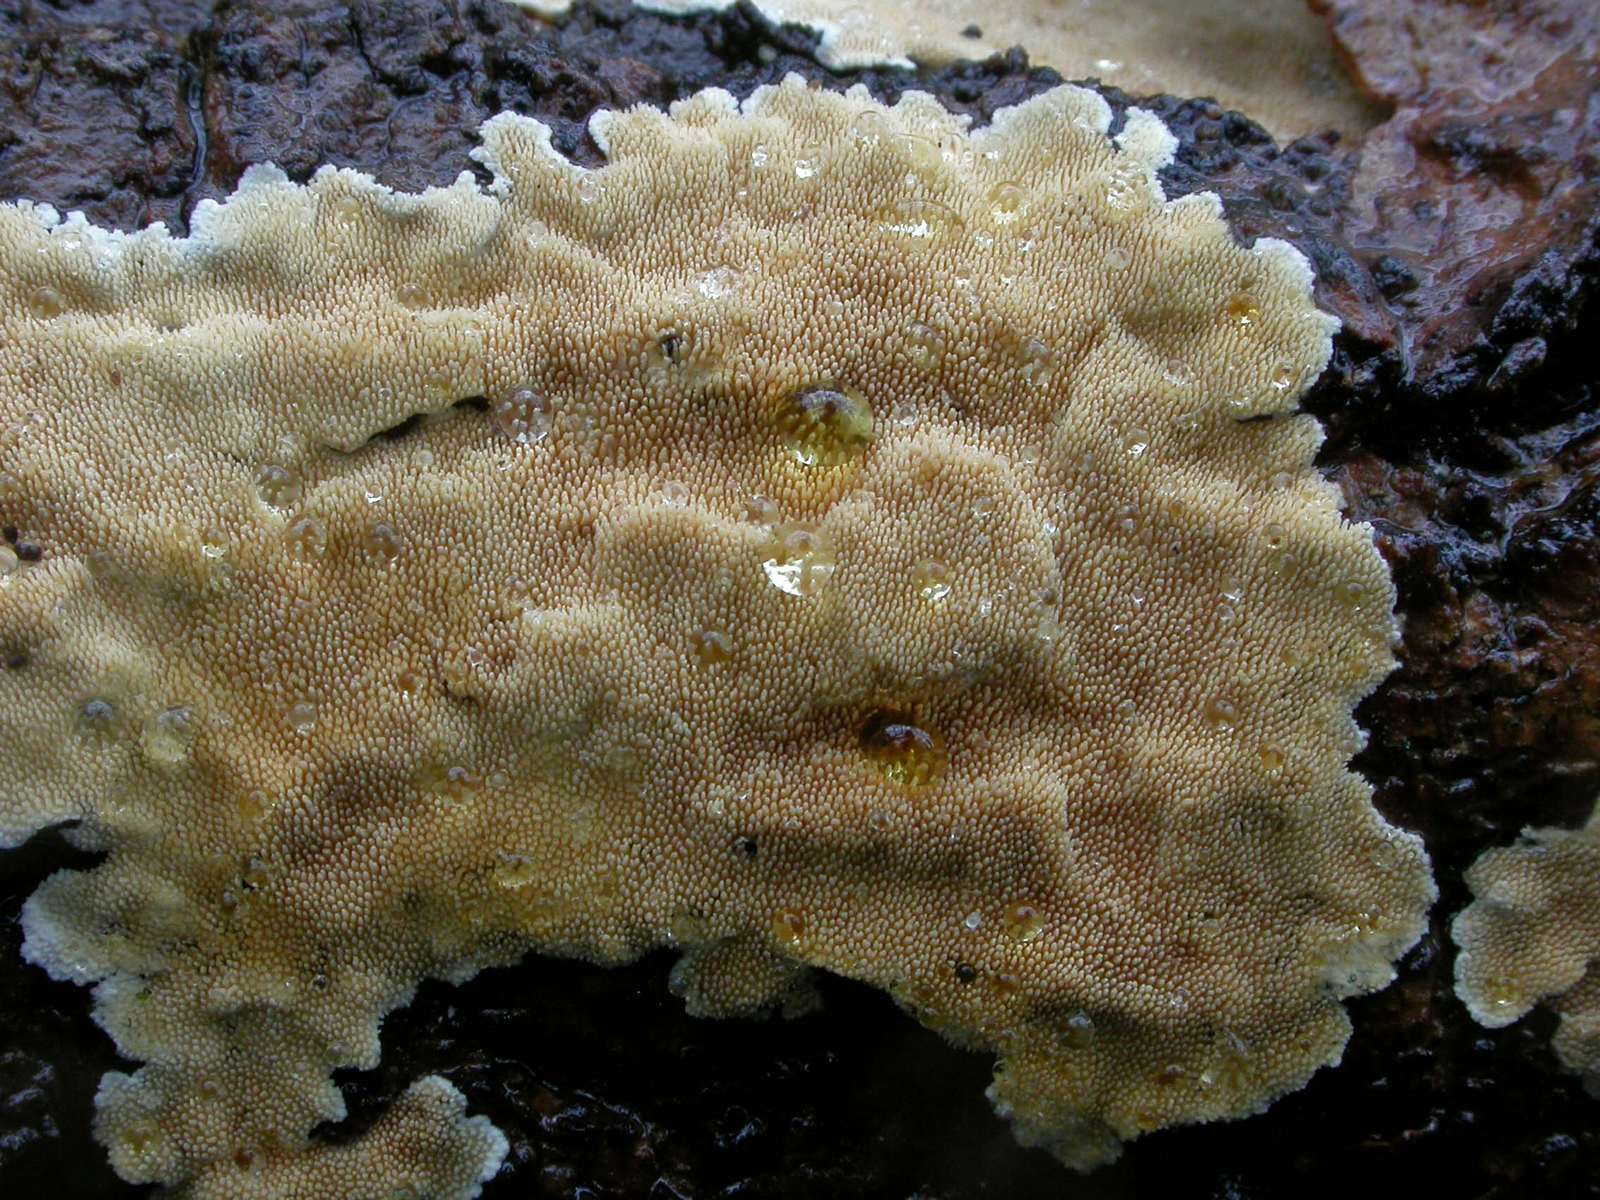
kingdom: Fungi
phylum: Basidiomycota
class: Agaricomycetes
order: Polyporales
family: Steccherinaceae
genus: Steccherinum
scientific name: Steccherinum ochraceum
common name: almindelig skønpig
